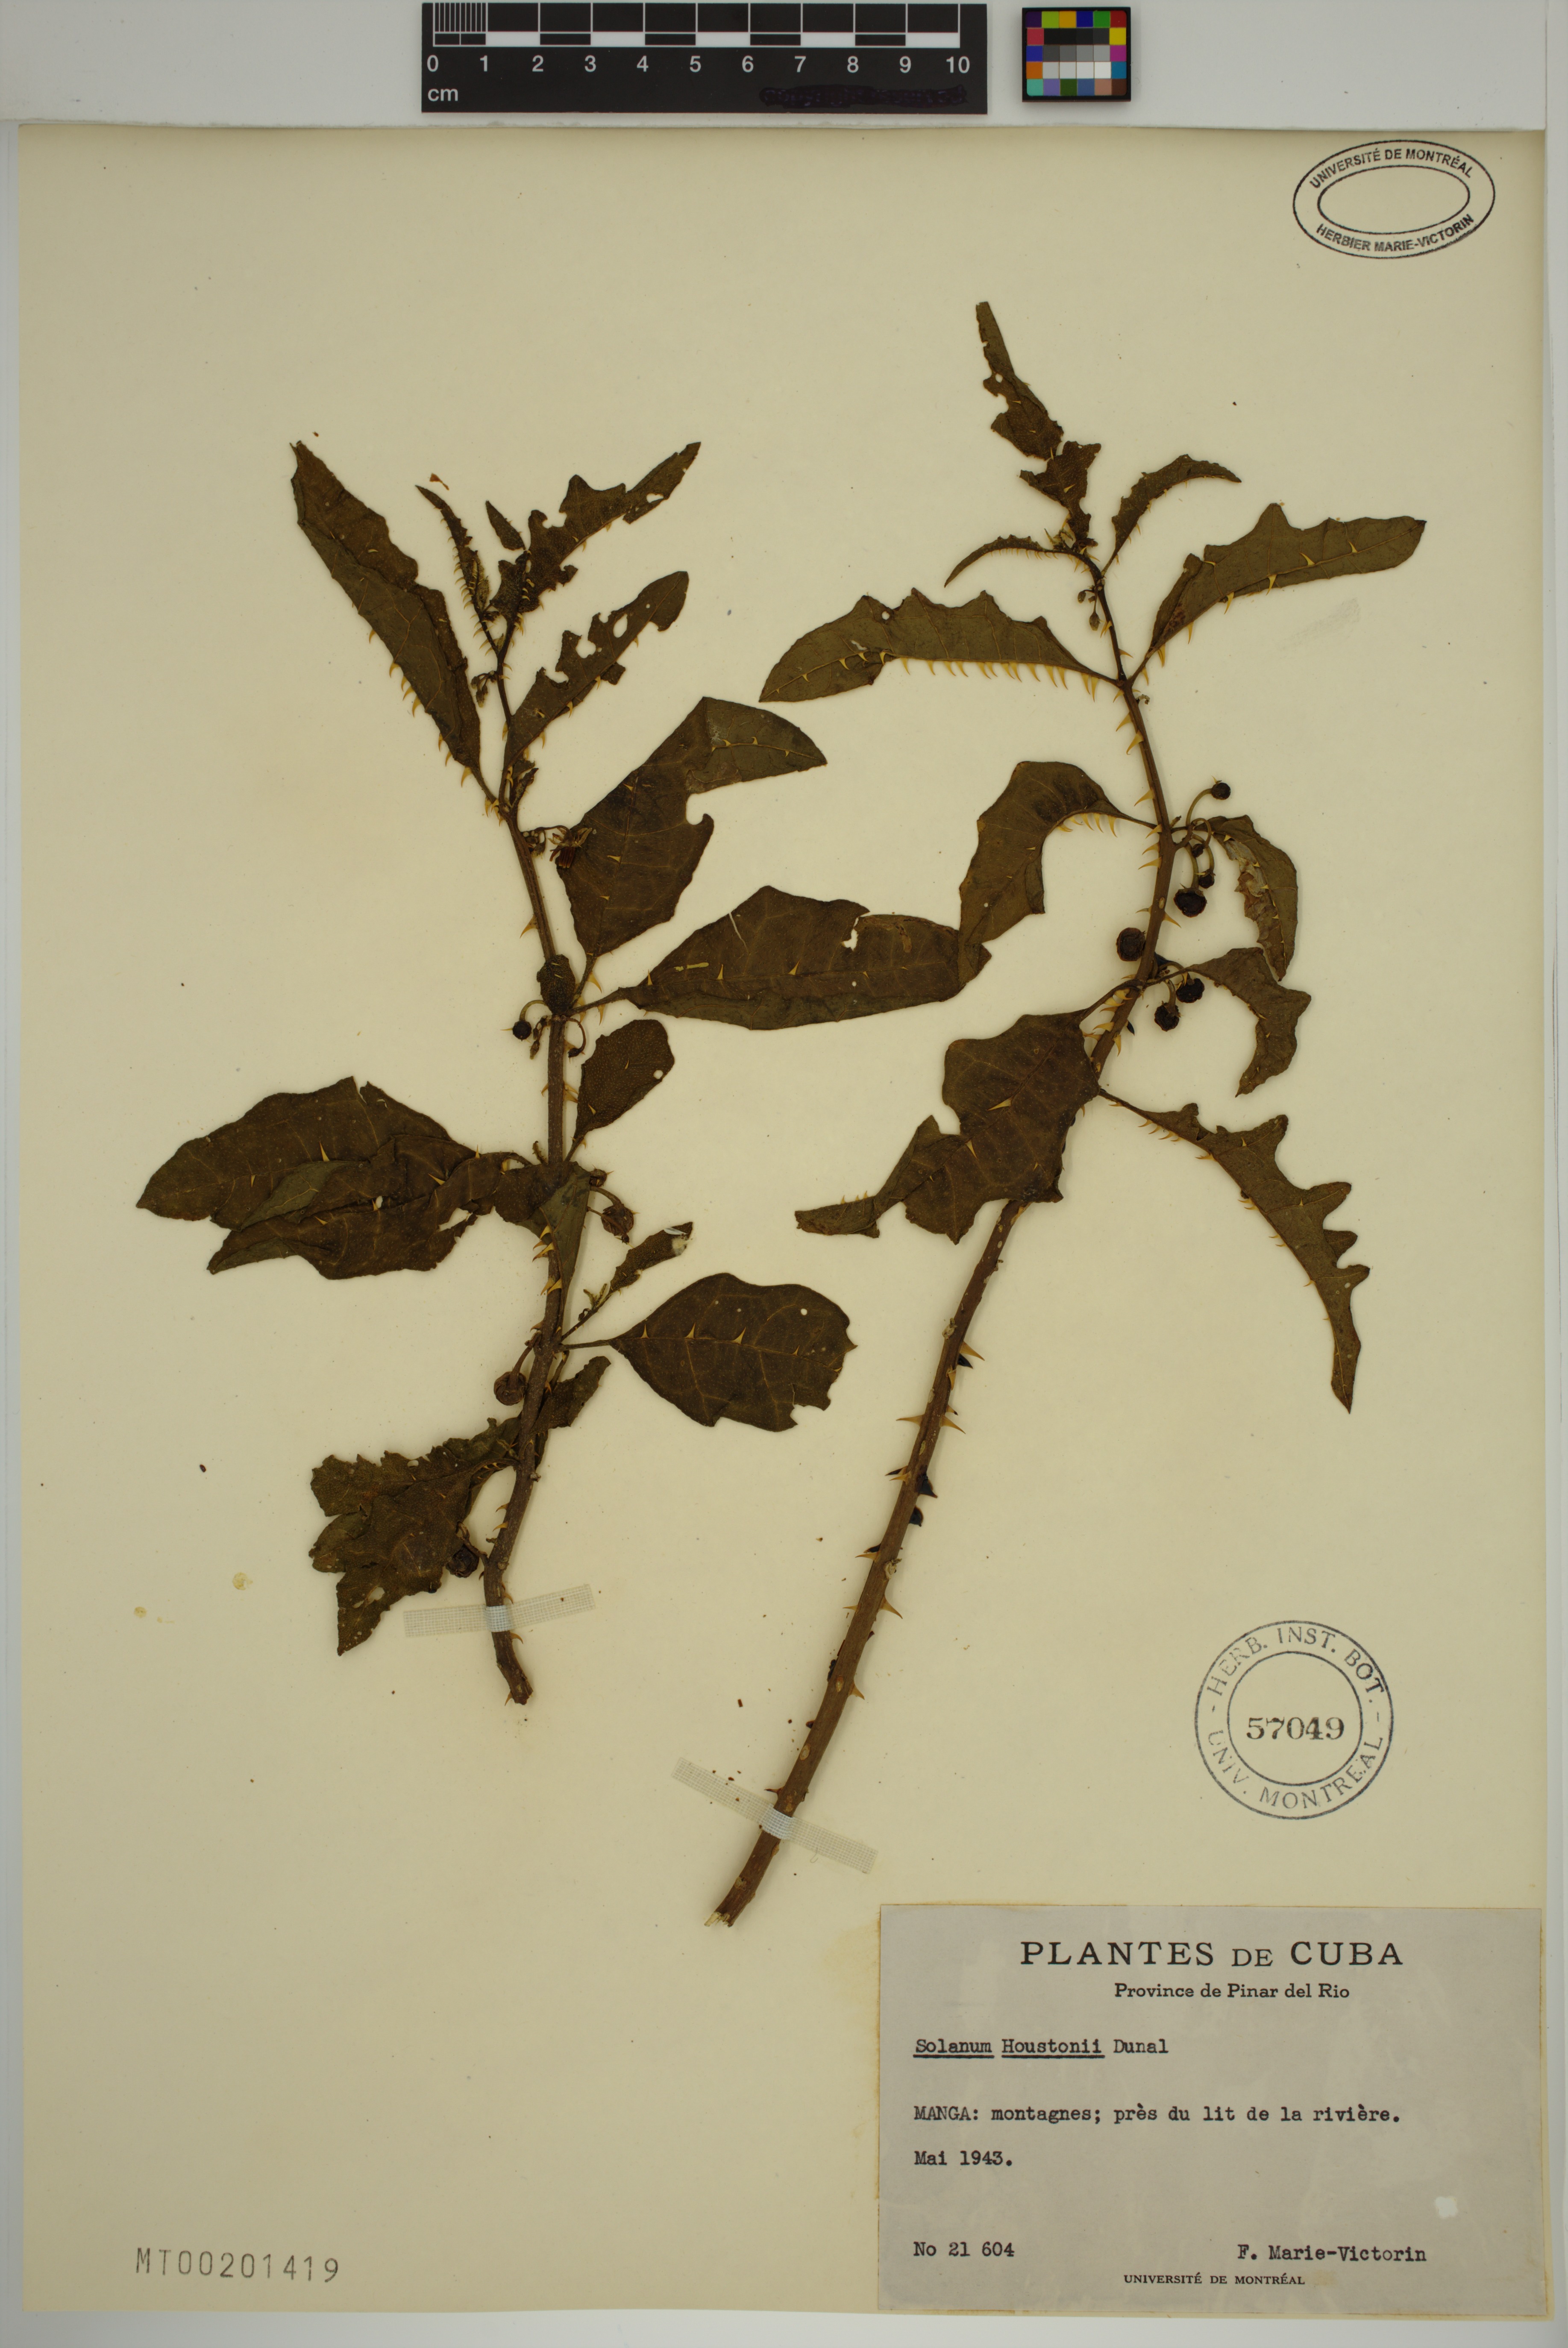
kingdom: Plantae
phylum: Tracheophyta
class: Magnoliopsida
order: Solanales
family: Solanaceae
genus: Solanum
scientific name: Solanum tampicense
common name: Scrambling nightshade
